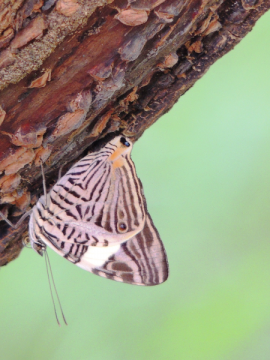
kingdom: Animalia
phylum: Arthropoda
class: Insecta
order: Lepidoptera
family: Nymphalidae
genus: Colobura
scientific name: Colobura dirce
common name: Dirce Beauty
